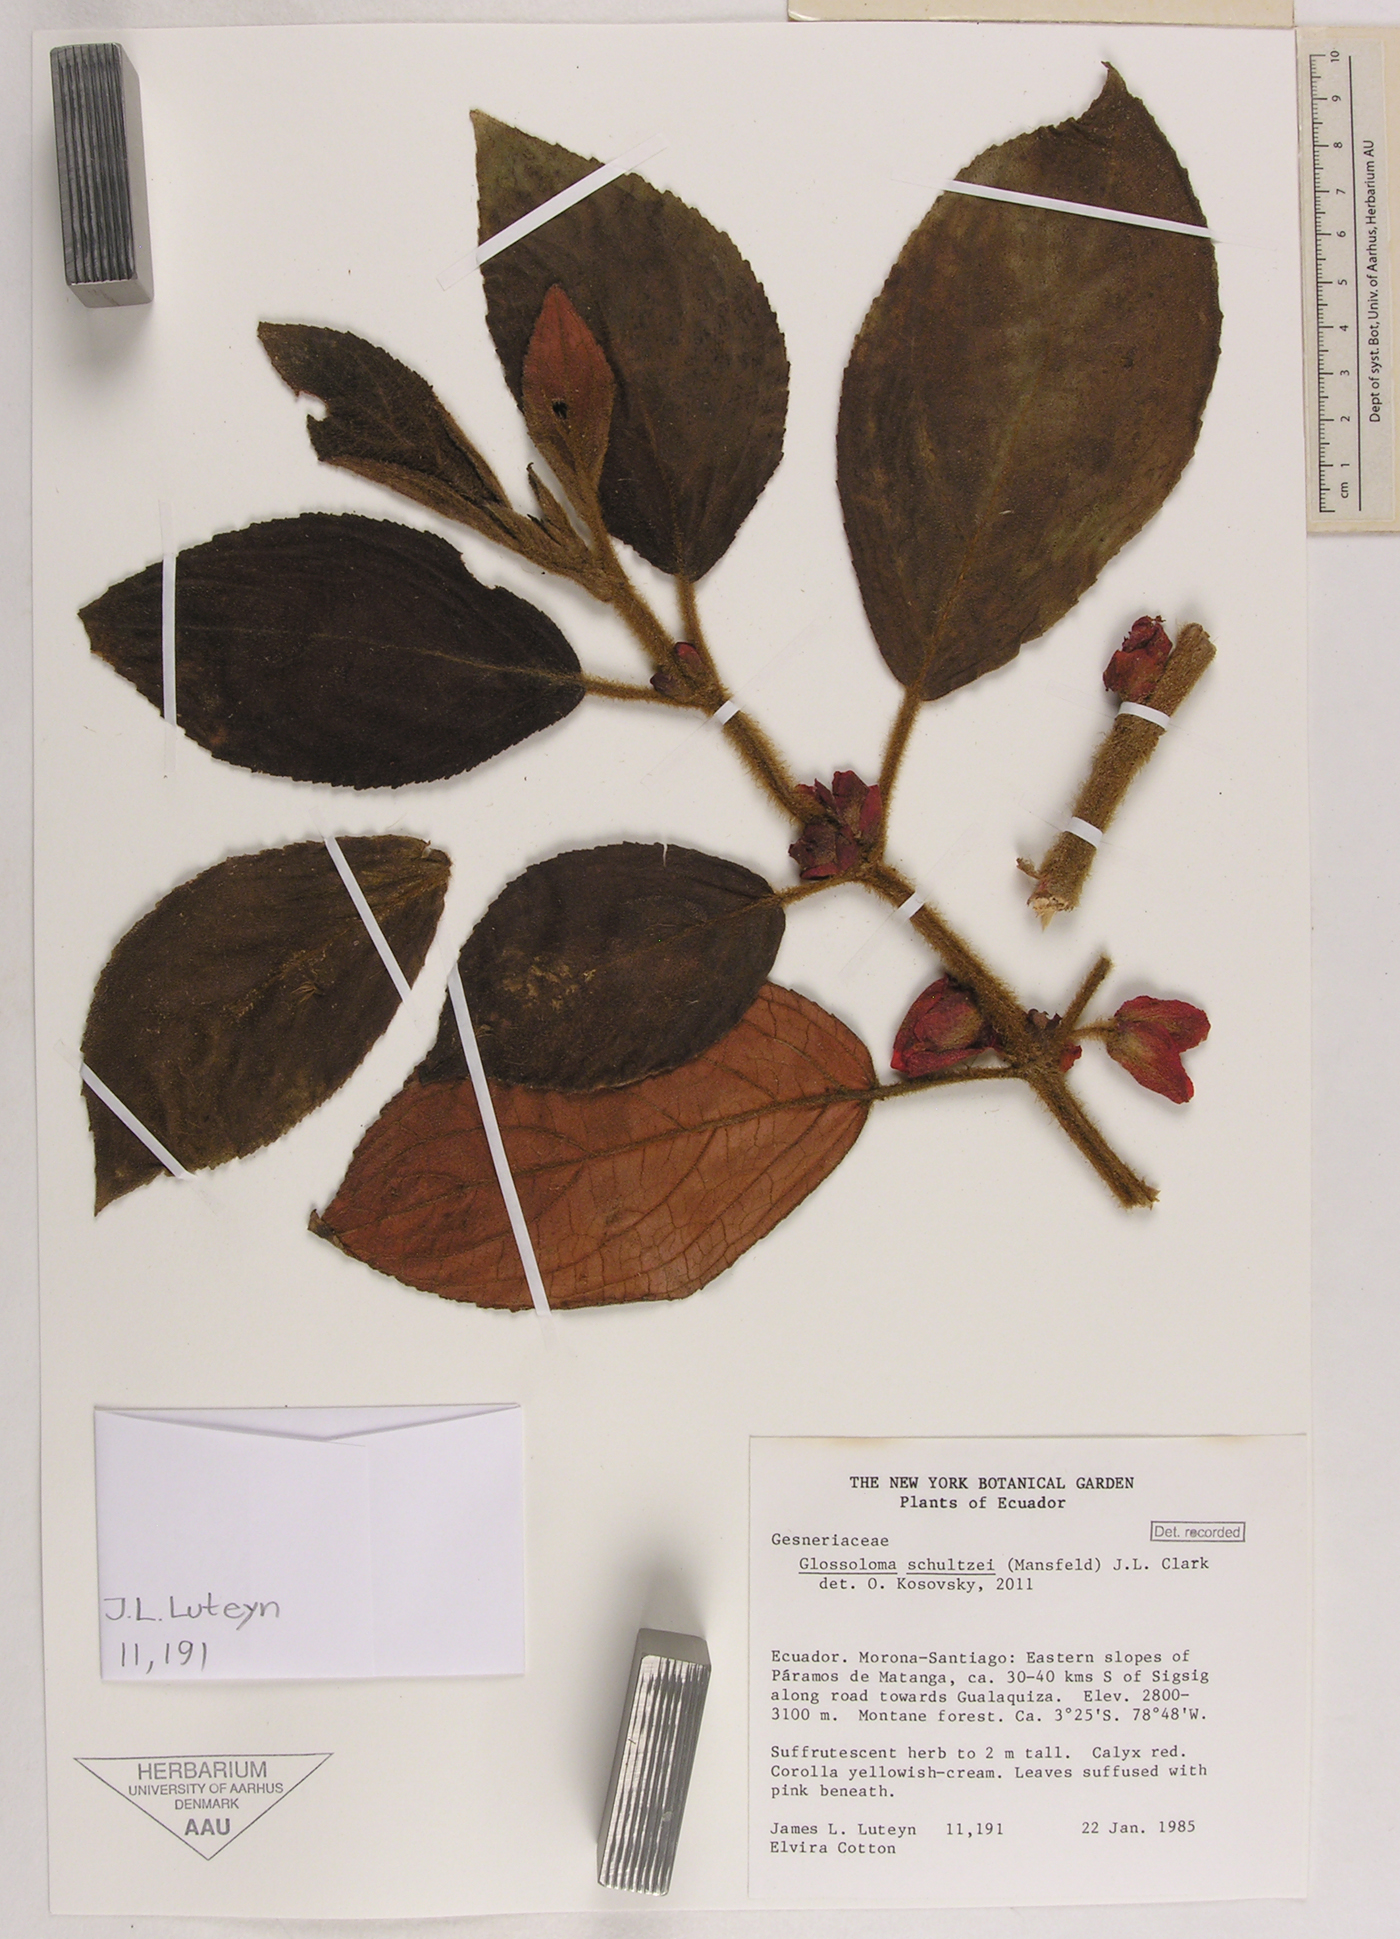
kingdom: Plantae
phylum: Tracheophyta
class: Magnoliopsida
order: Lamiales
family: Gesneriaceae
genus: Glossoloma
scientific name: Glossoloma schultzei
